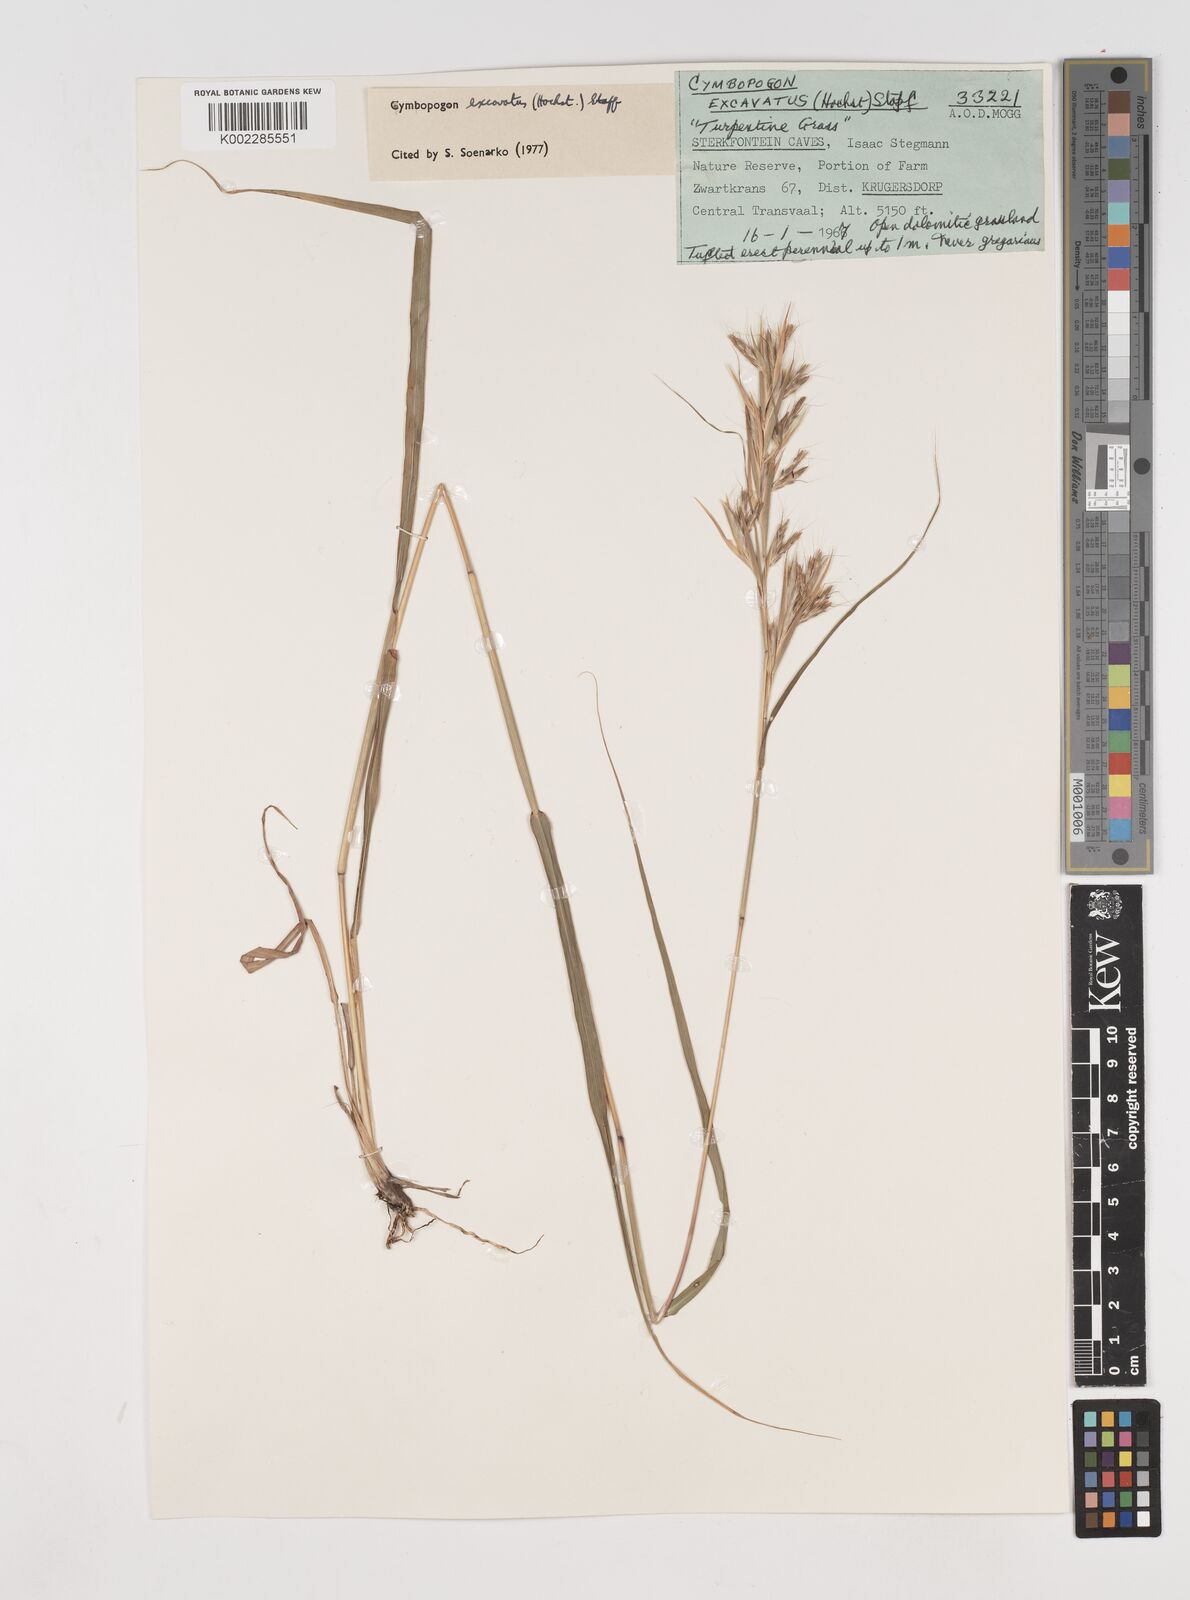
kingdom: Plantae
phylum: Tracheophyta
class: Liliopsida
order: Poales
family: Poaceae
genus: Cymbopogon
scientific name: Cymbopogon caesius
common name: Kachi grass
